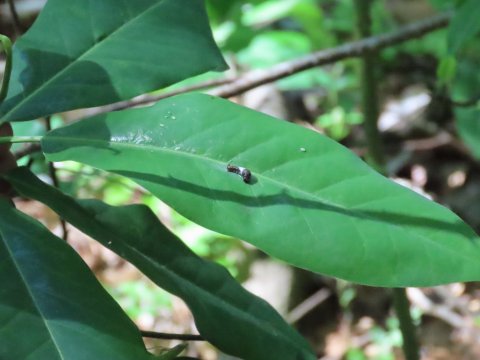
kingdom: Animalia
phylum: Arthropoda
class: Insecta
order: Lepidoptera
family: Papilionidae
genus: Papilio
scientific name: Papilio
